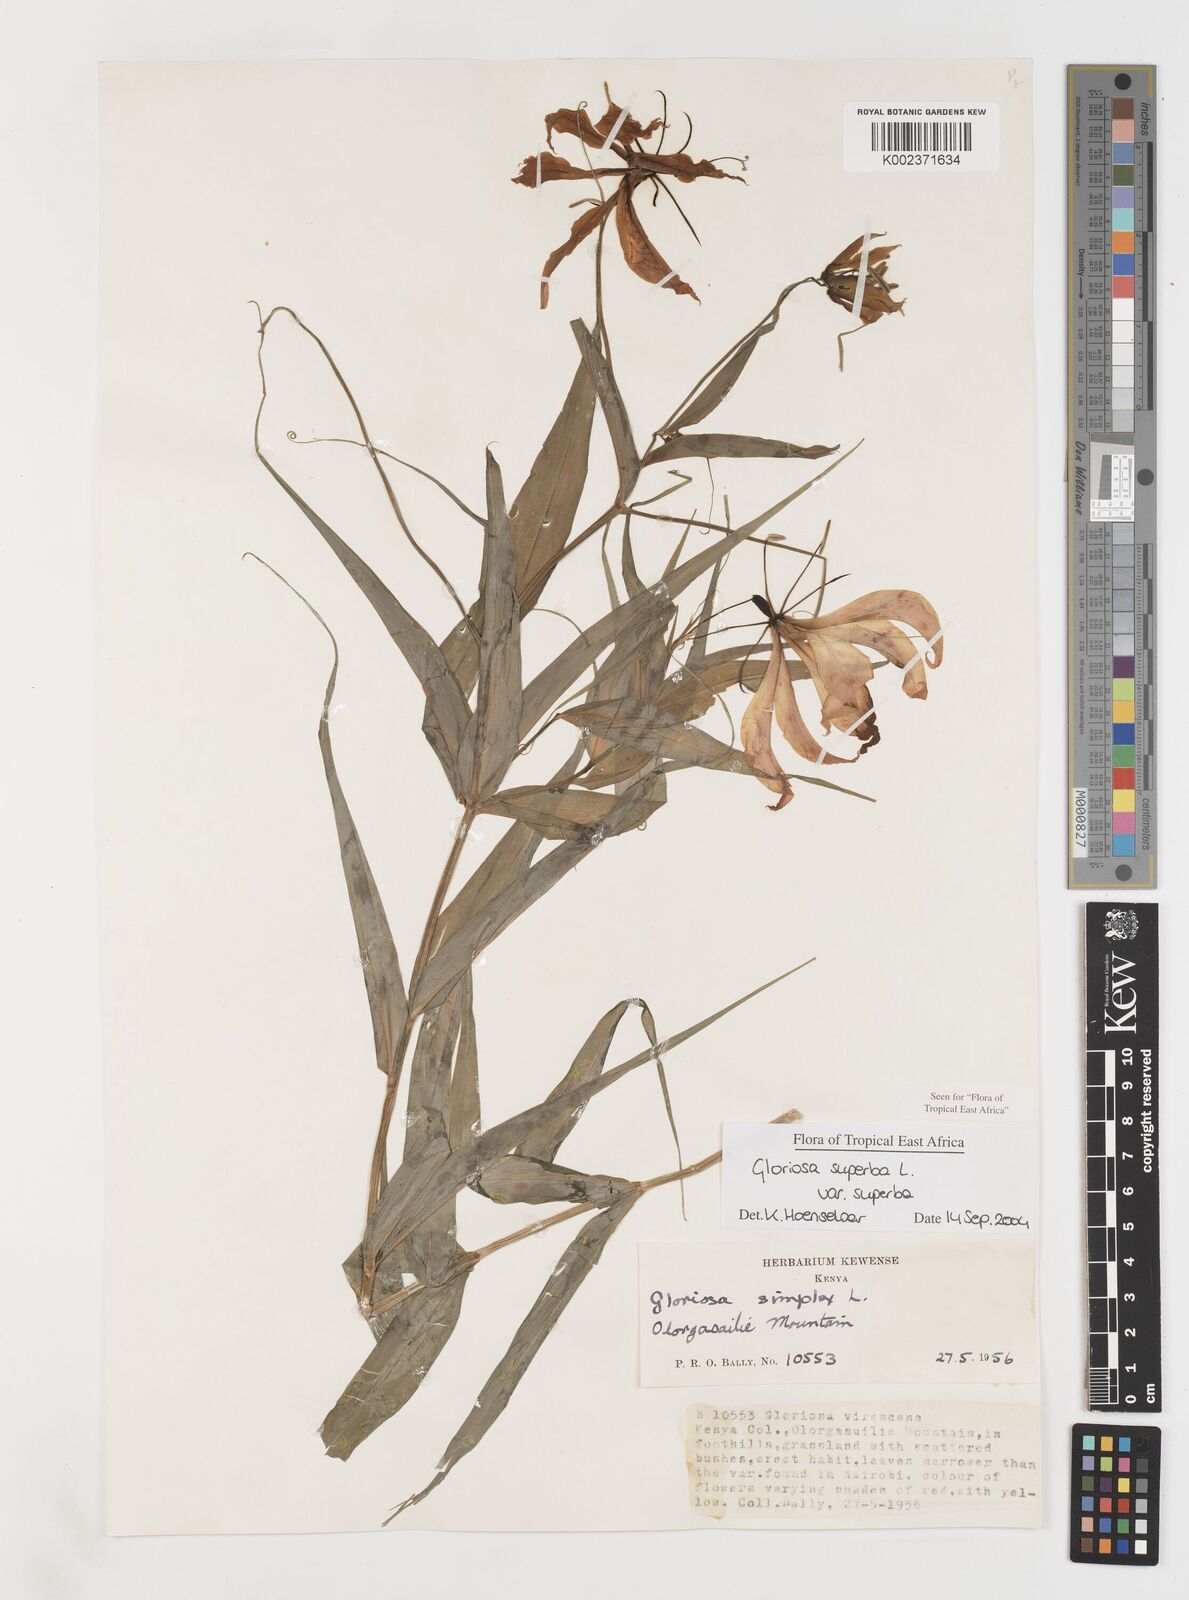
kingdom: Plantae
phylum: Tracheophyta
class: Liliopsida
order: Liliales
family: Colchicaceae
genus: Gloriosa
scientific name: Gloriosa simplex
